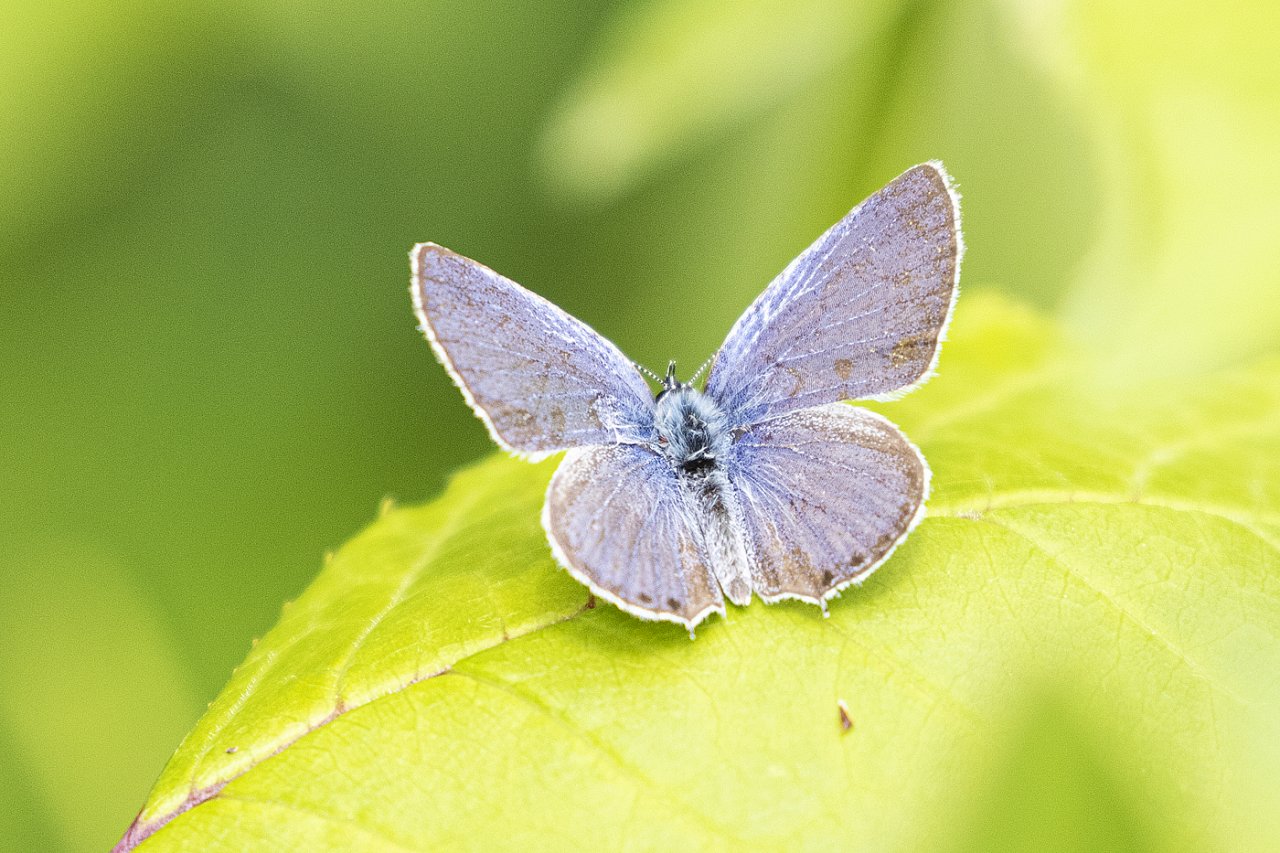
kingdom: Animalia
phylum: Arthropoda
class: Insecta
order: Lepidoptera
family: Lycaenidae
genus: Elkalyce
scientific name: Elkalyce amyntula
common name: Western Tailed-Blue
